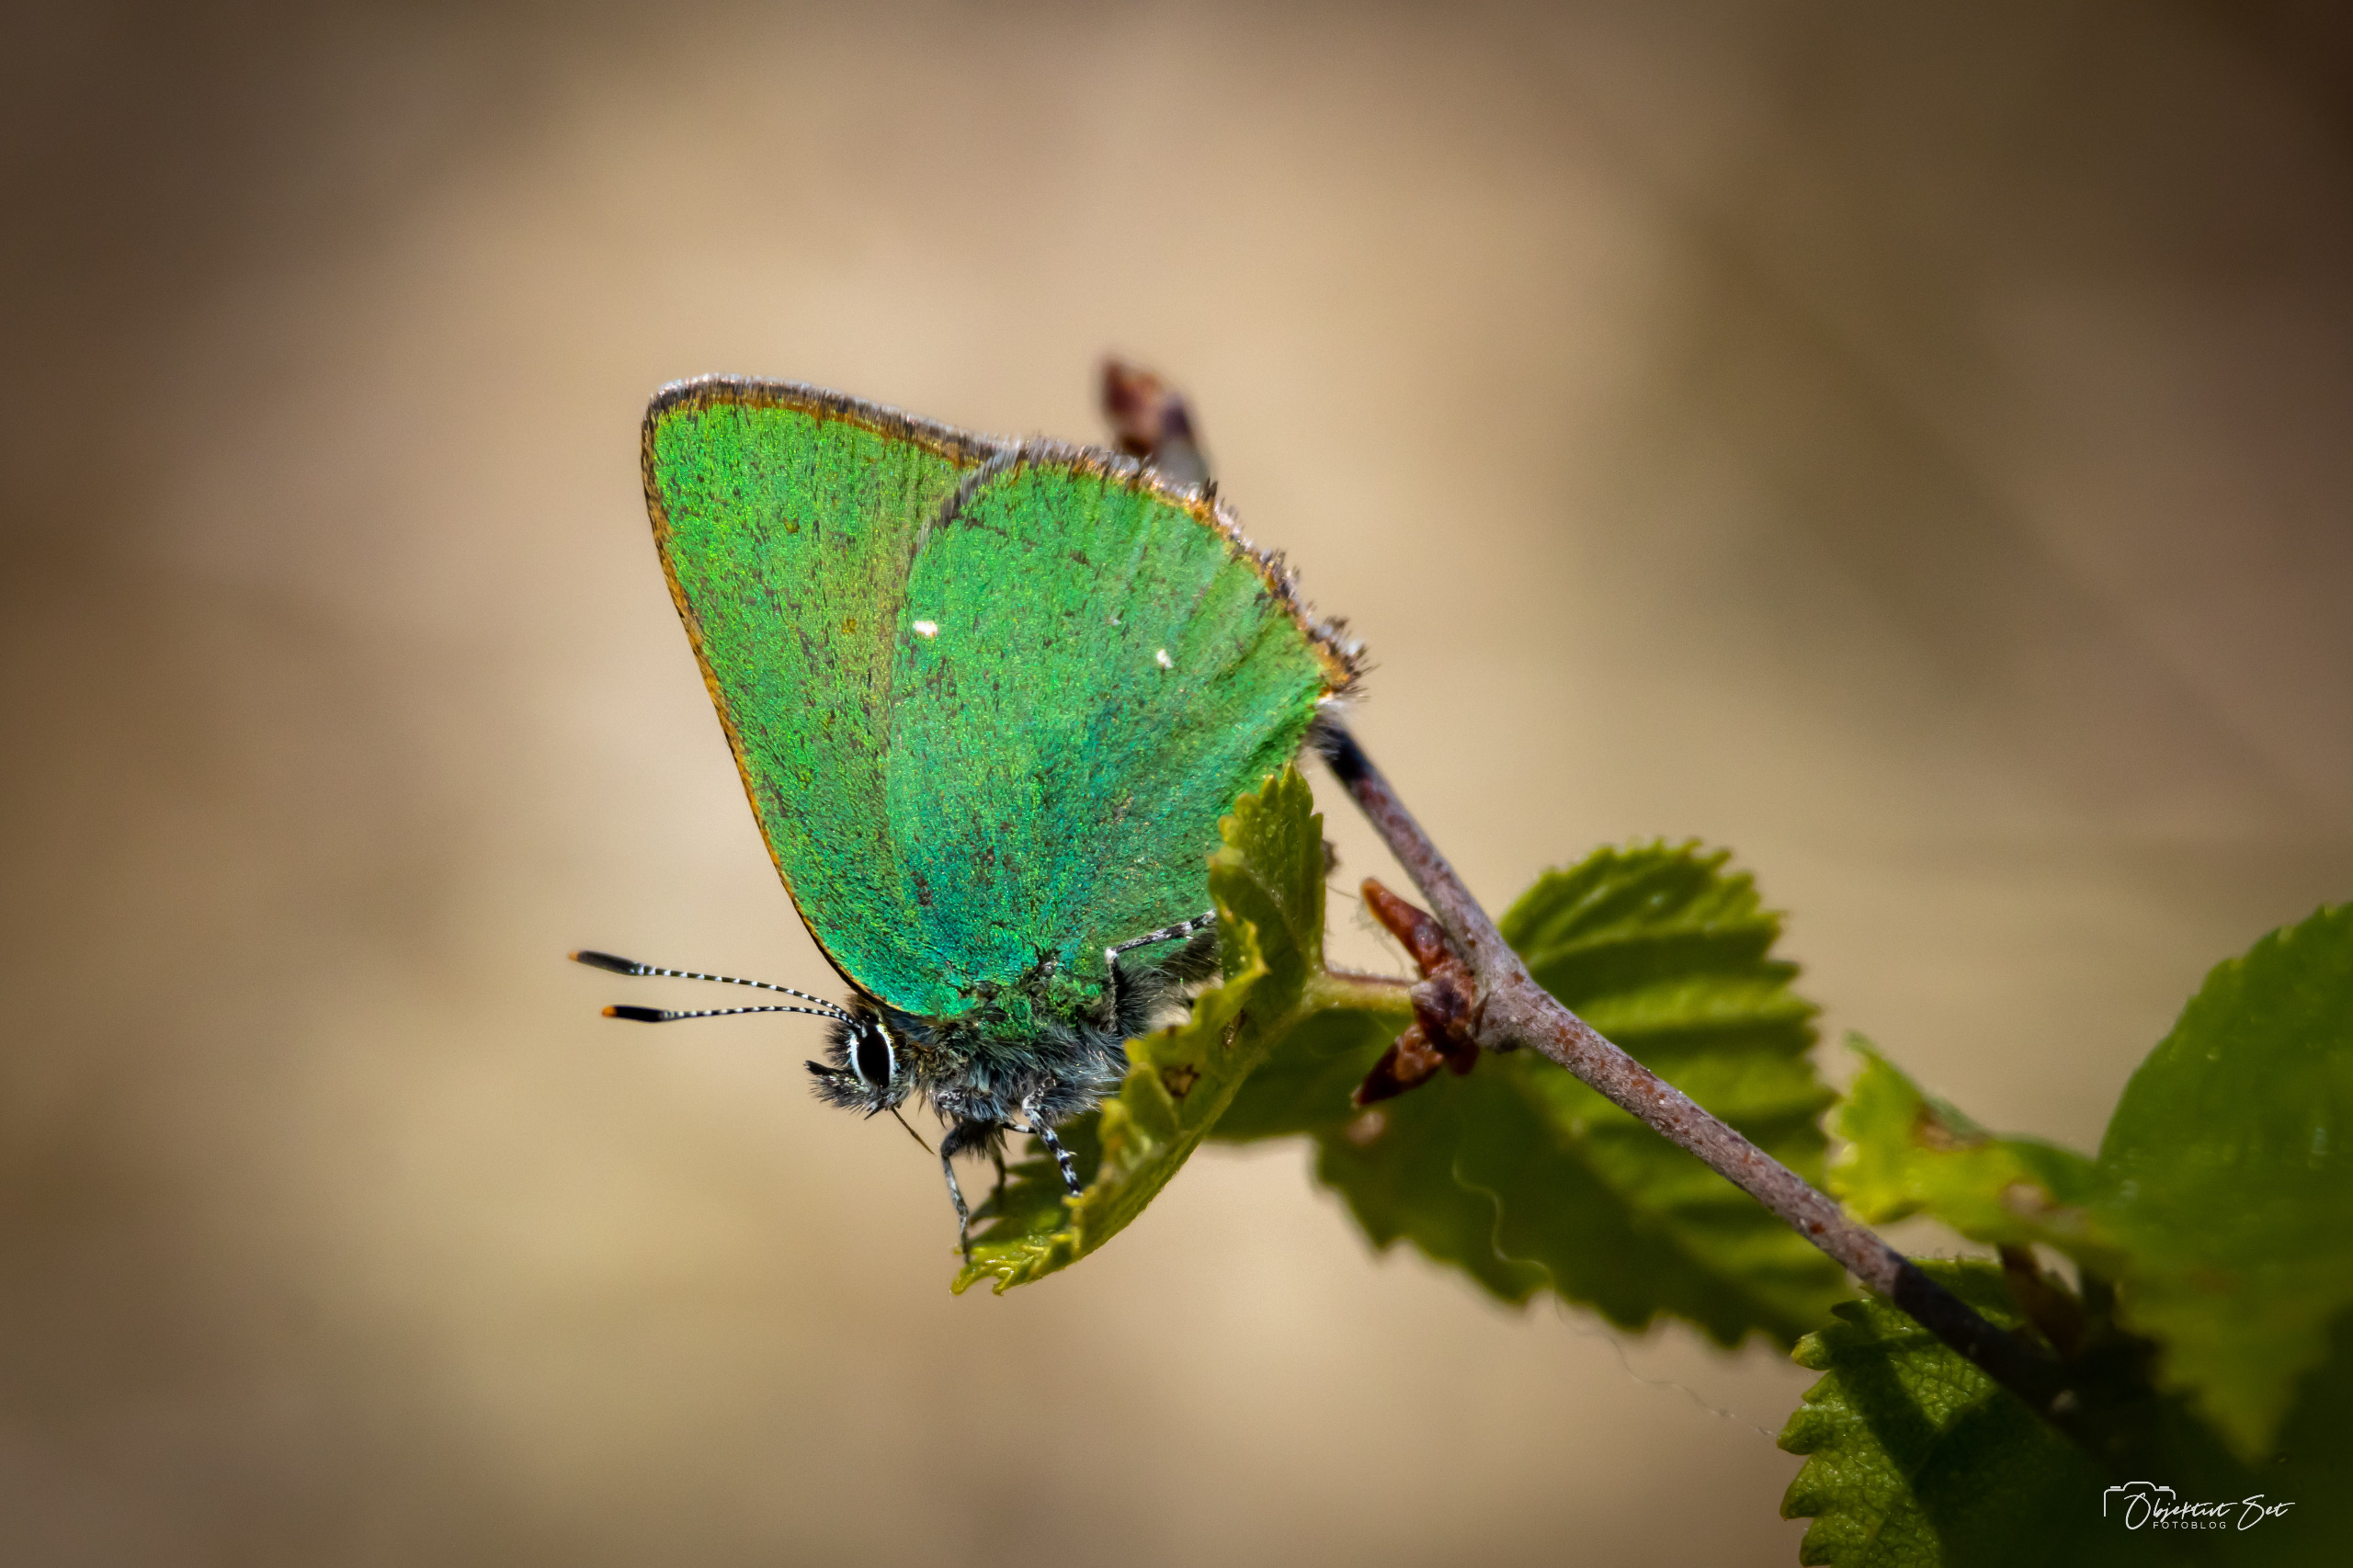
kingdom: Animalia
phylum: Arthropoda
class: Insecta
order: Lepidoptera
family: Lycaenidae
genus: Callophrys
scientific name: Callophrys rubi
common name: Grøn busksommerfugl
